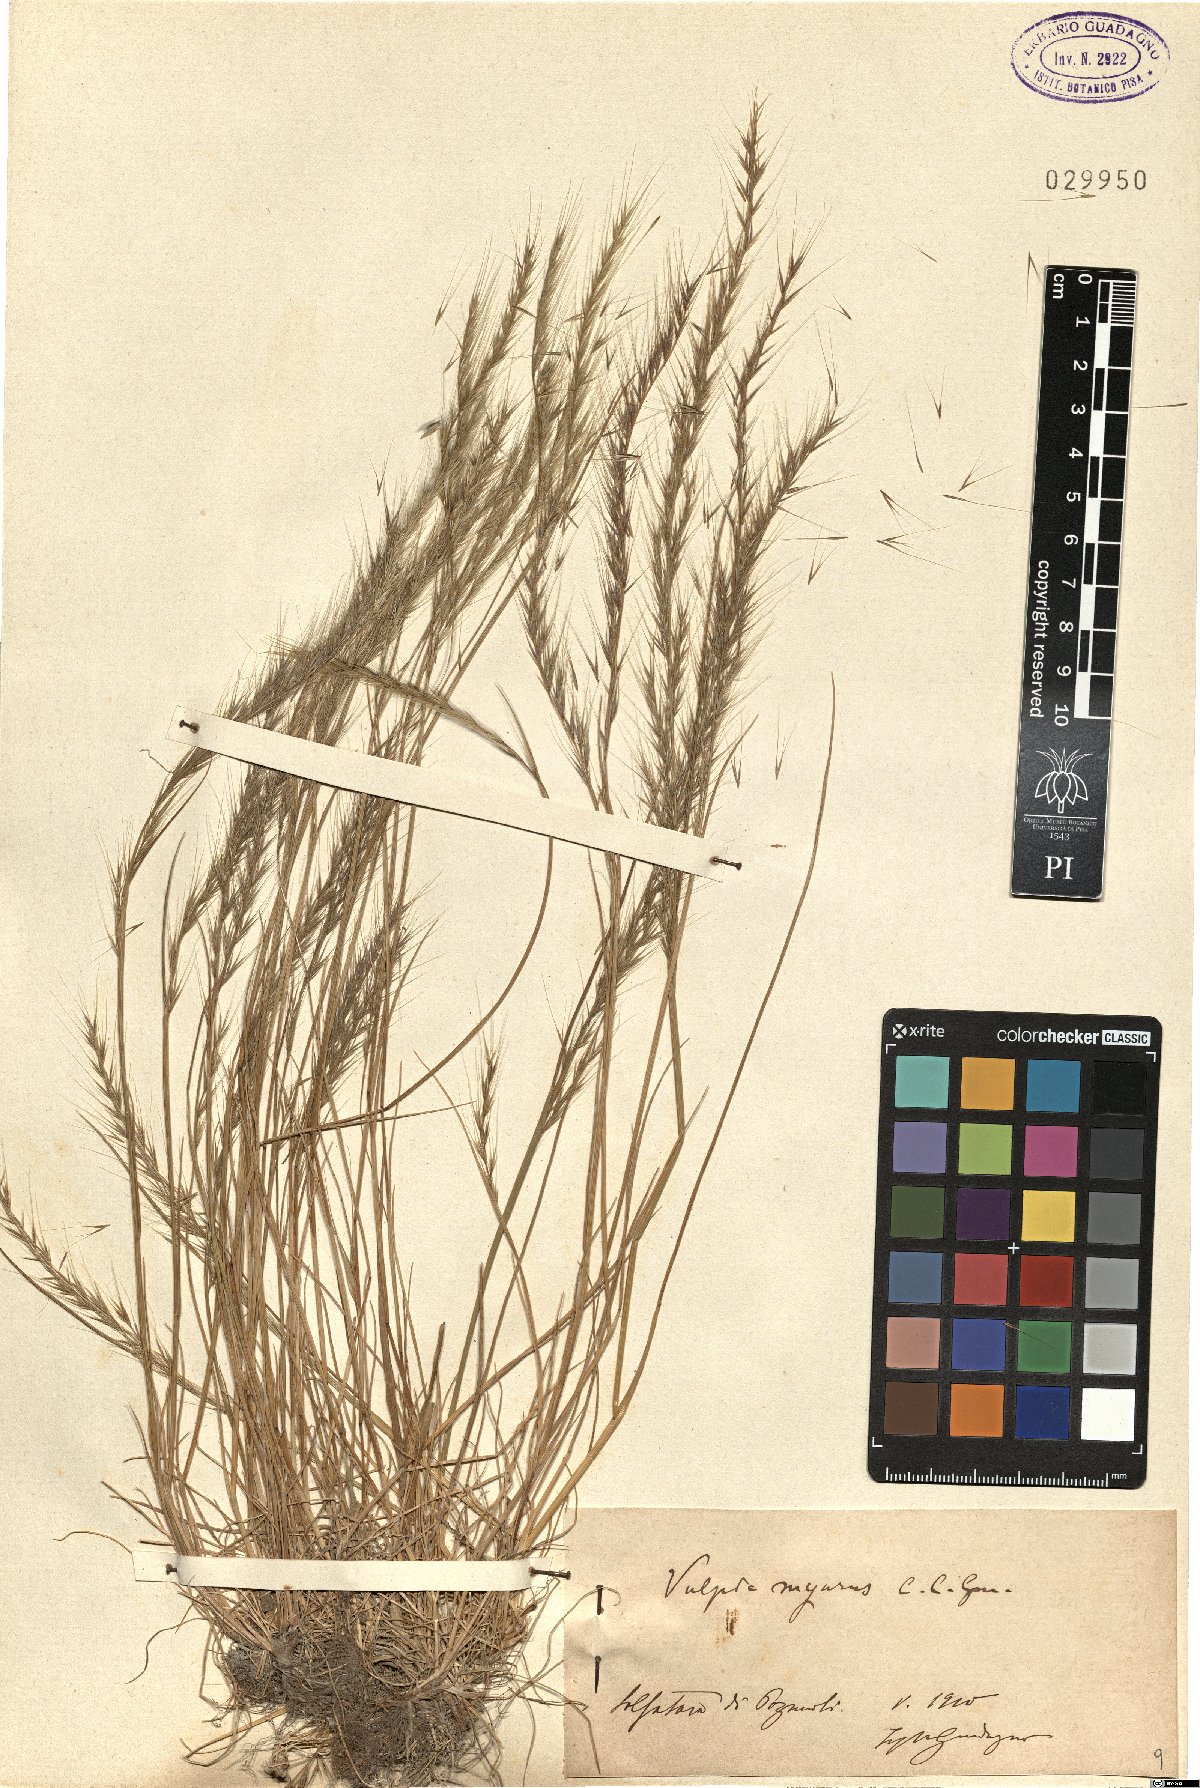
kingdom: Plantae
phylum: Tracheophyta
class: Liliopsida
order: Poales
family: Poaceae
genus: Festuca
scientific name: Festuca myuros
